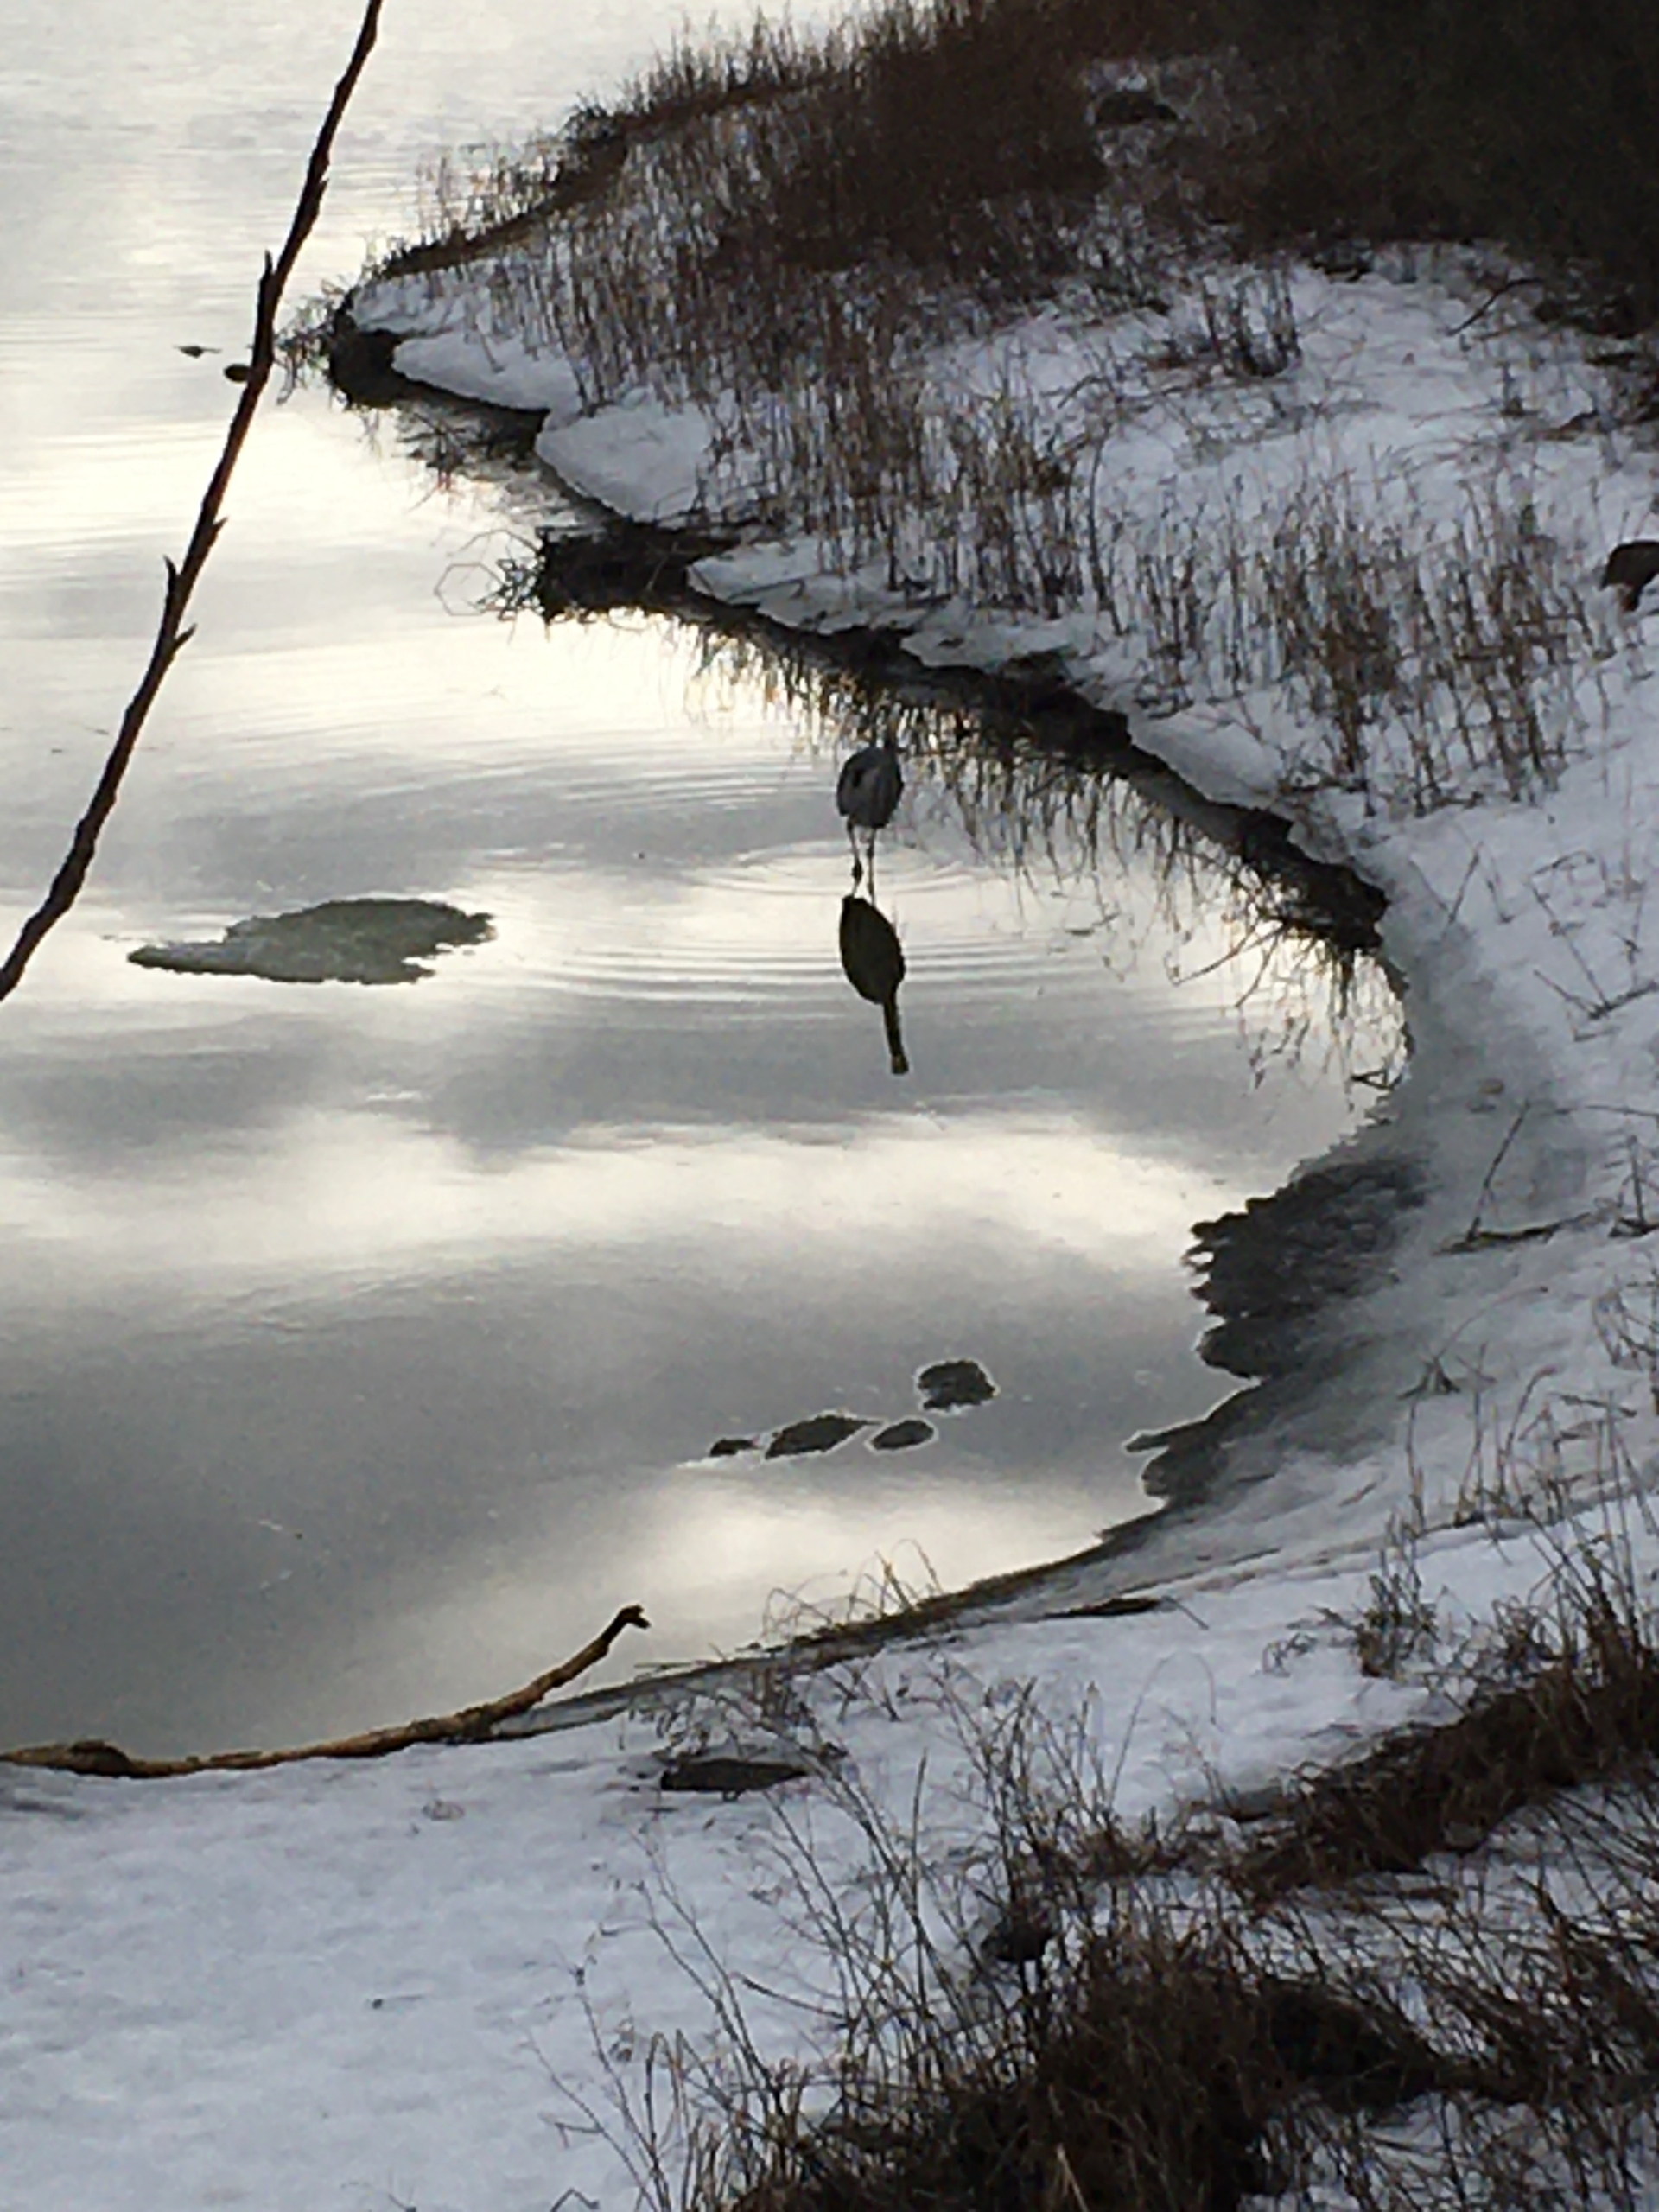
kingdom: Animalia
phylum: Chordata
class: Aves
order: Pelecaniformes
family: Ardeidae
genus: Ardea
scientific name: Ardea cinerea
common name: Fiskehejre
